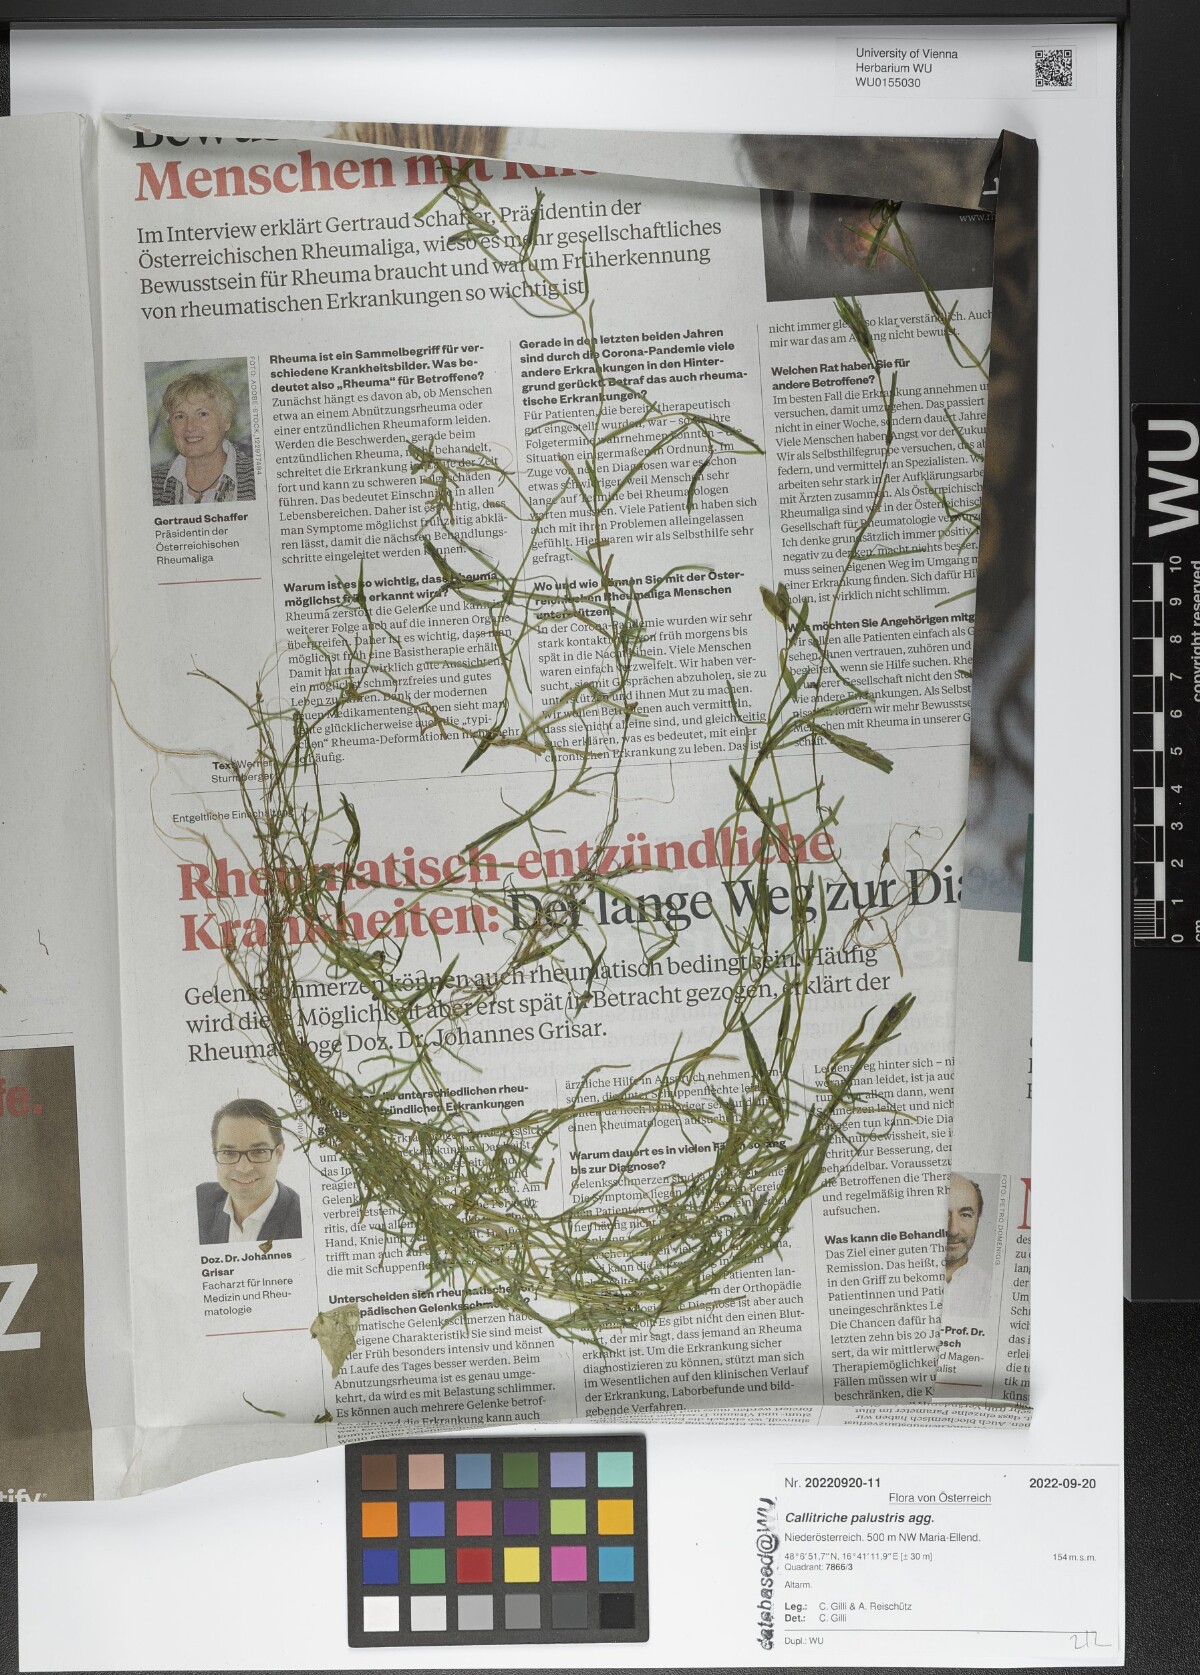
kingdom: Plantae
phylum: Tracheophyta
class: Magnoliopsida
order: Lamiales
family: Plantaginaceae
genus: Callitriche
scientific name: Callitriche palustris
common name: Spring water-starwort
